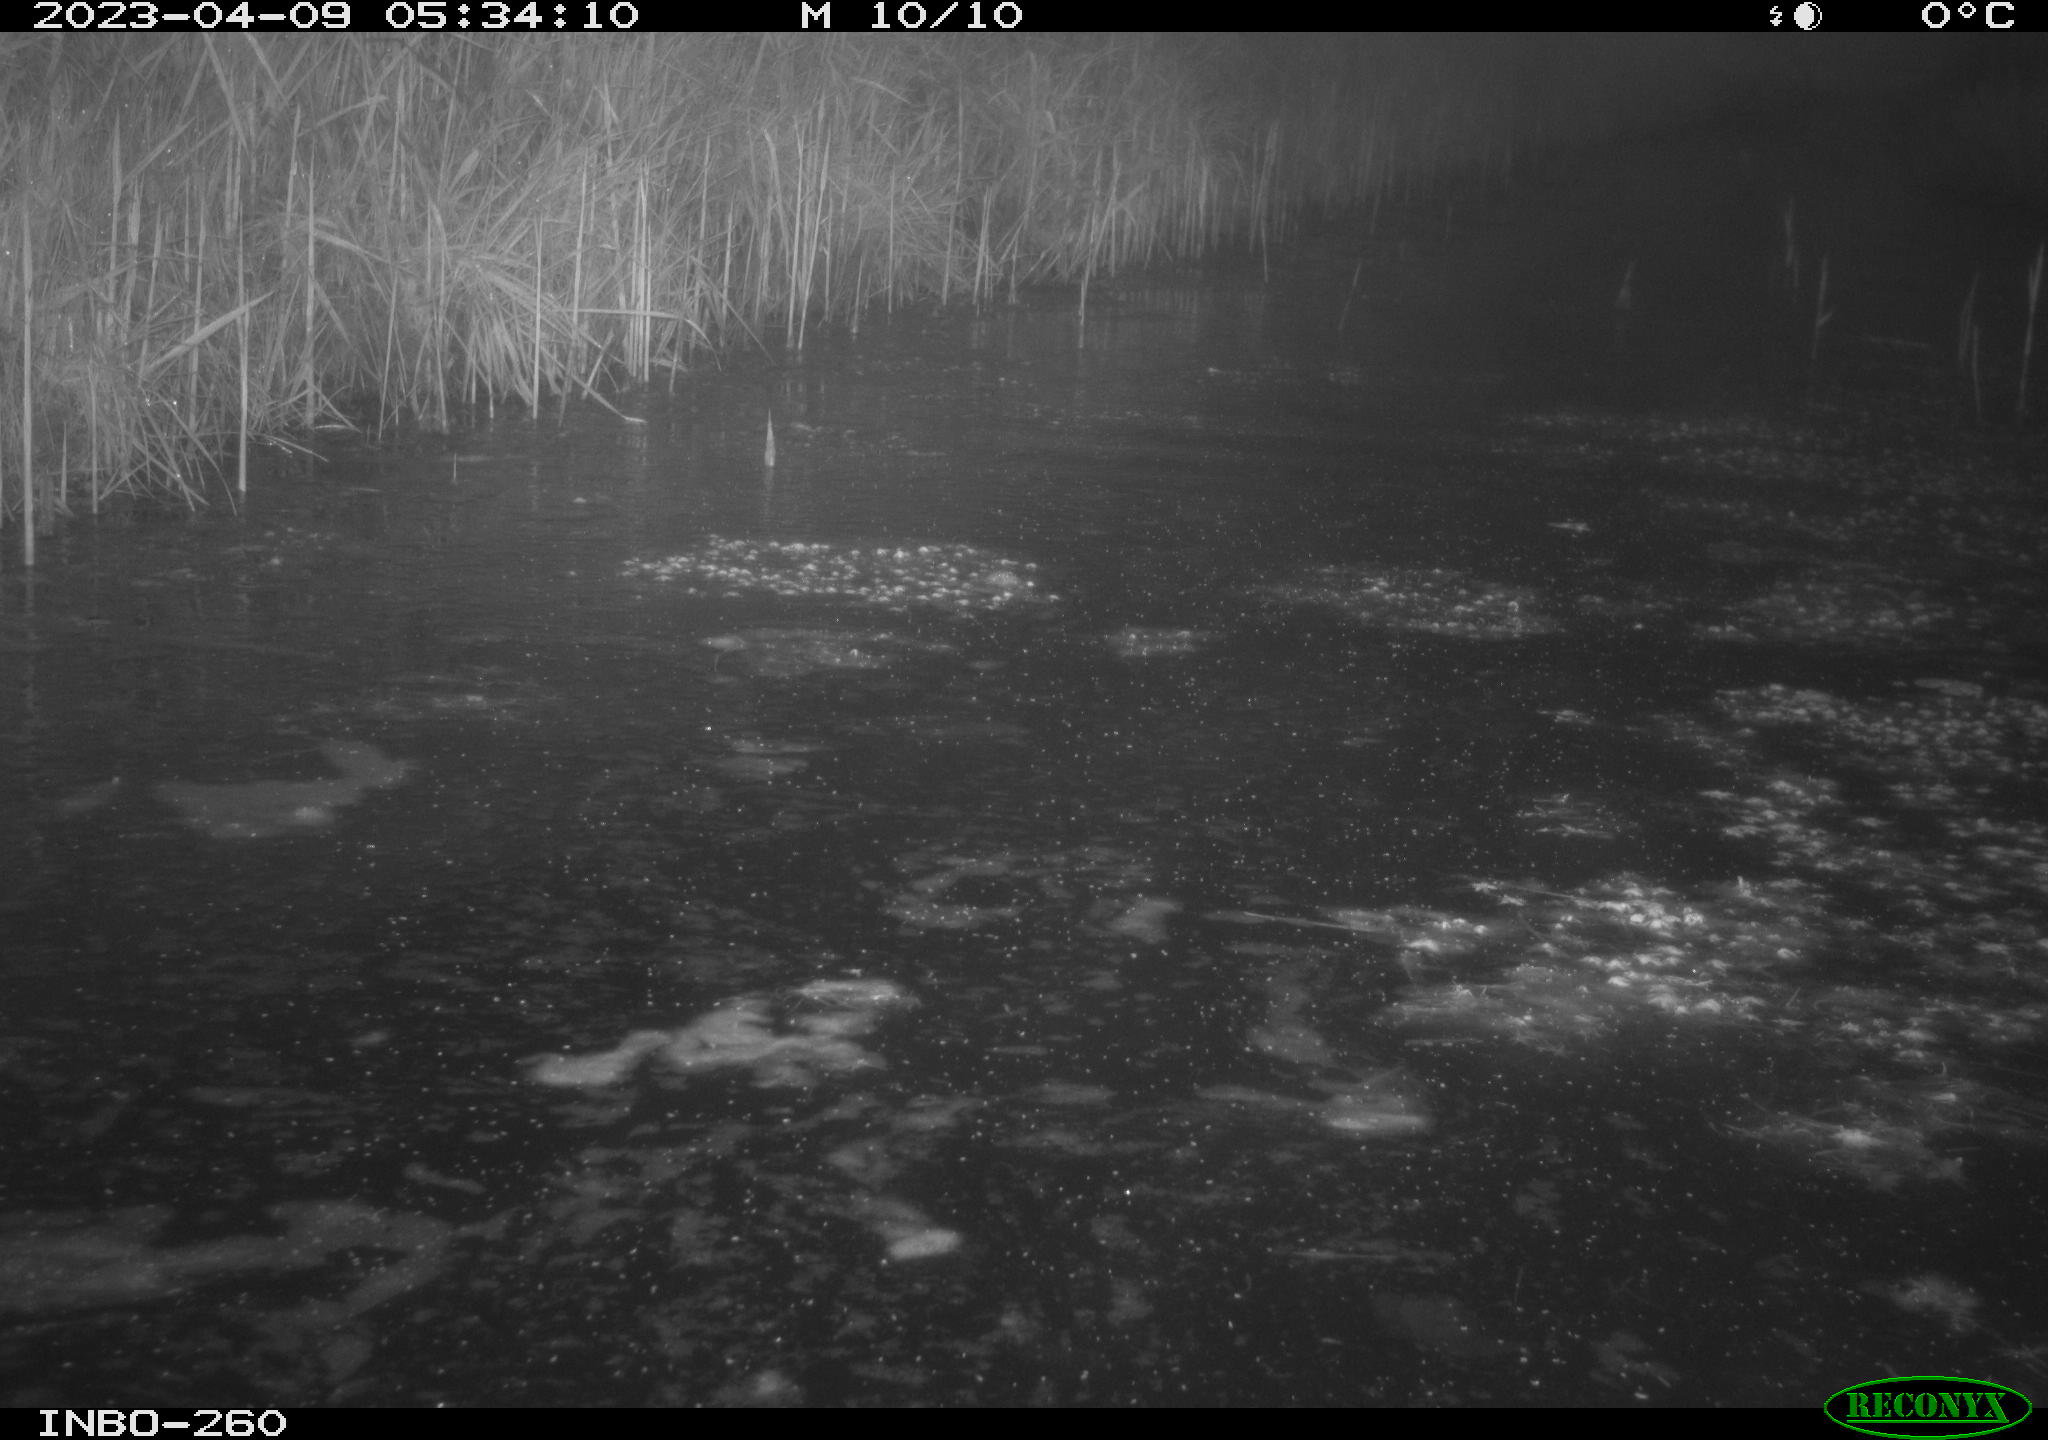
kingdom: Animalia
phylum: Chordata
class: Aves
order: Anseriformes
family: Anatidae
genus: Anas
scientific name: Anas
